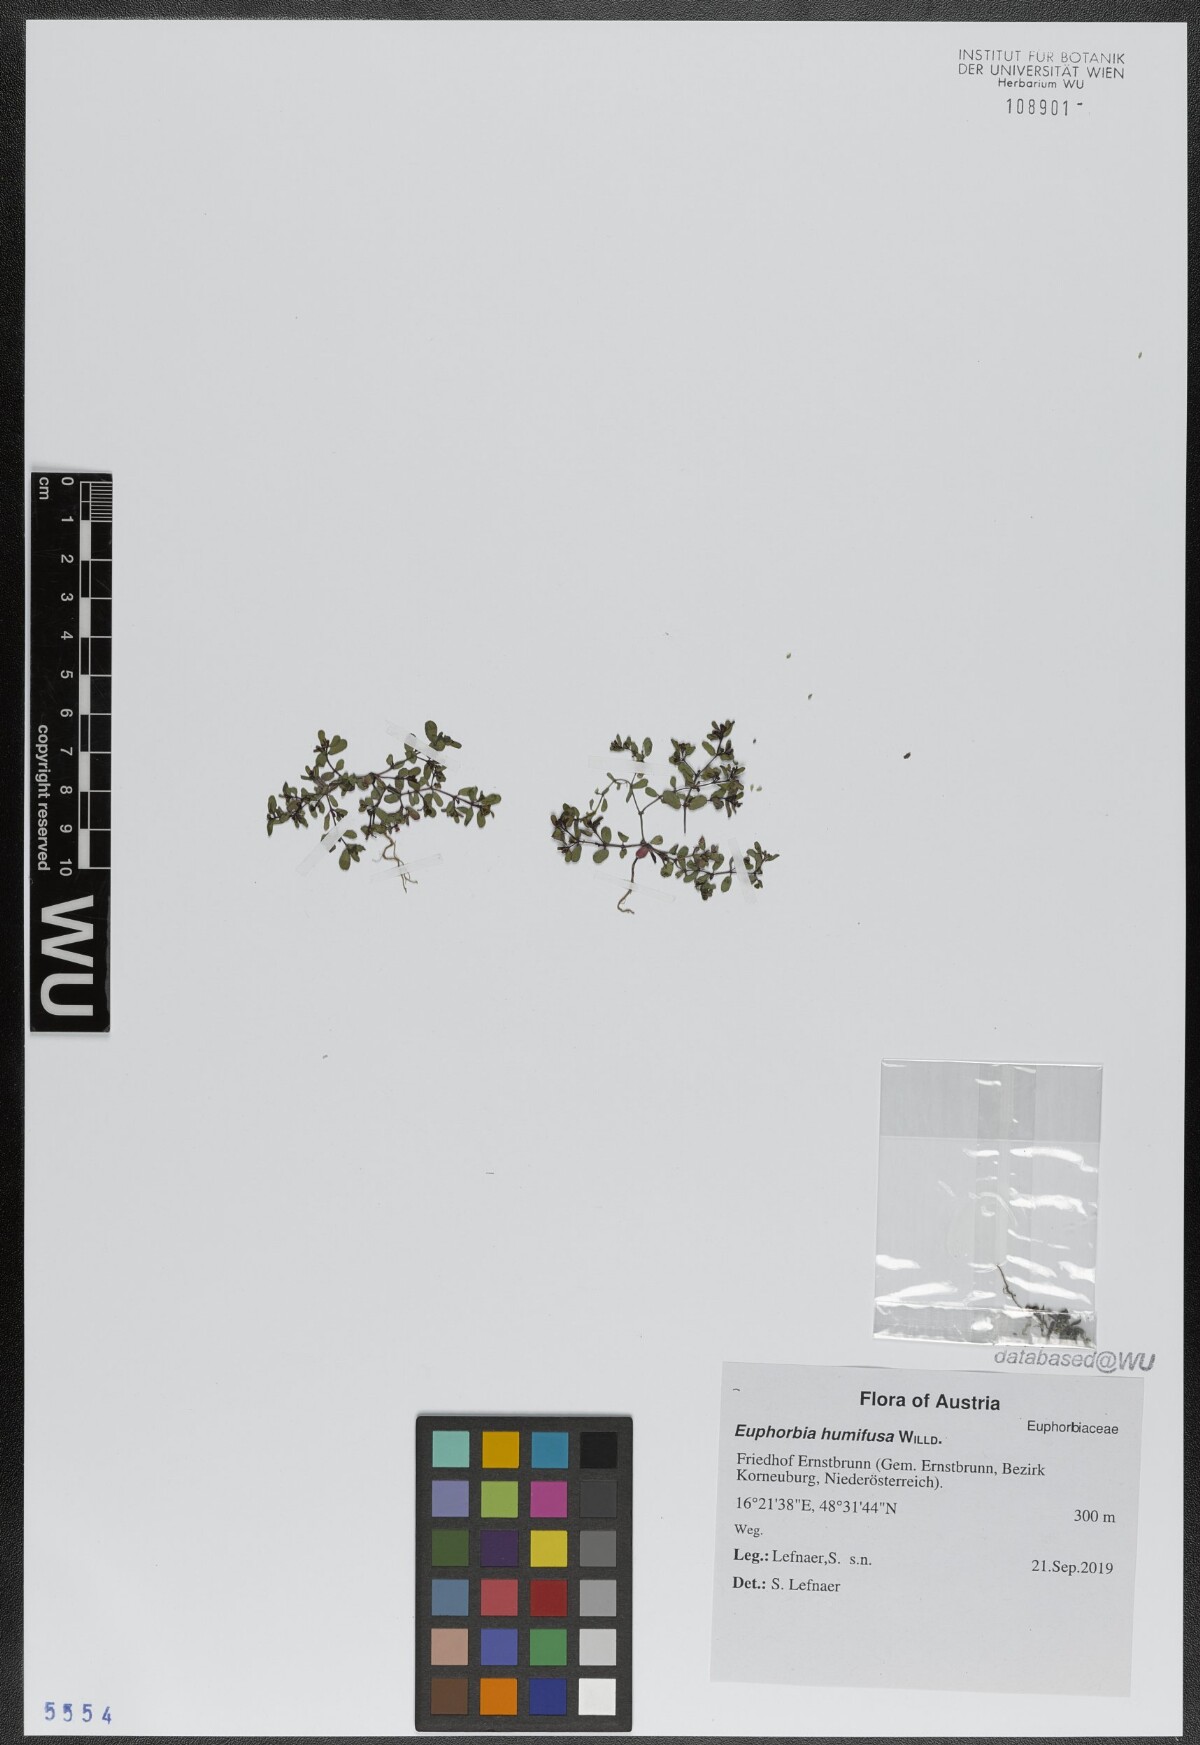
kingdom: Plantae
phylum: Tracheophyta
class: Magnoliopsida
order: Malpighiales
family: Euphorbiaceae
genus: Euphorbia
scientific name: Euphorbia humifusa
